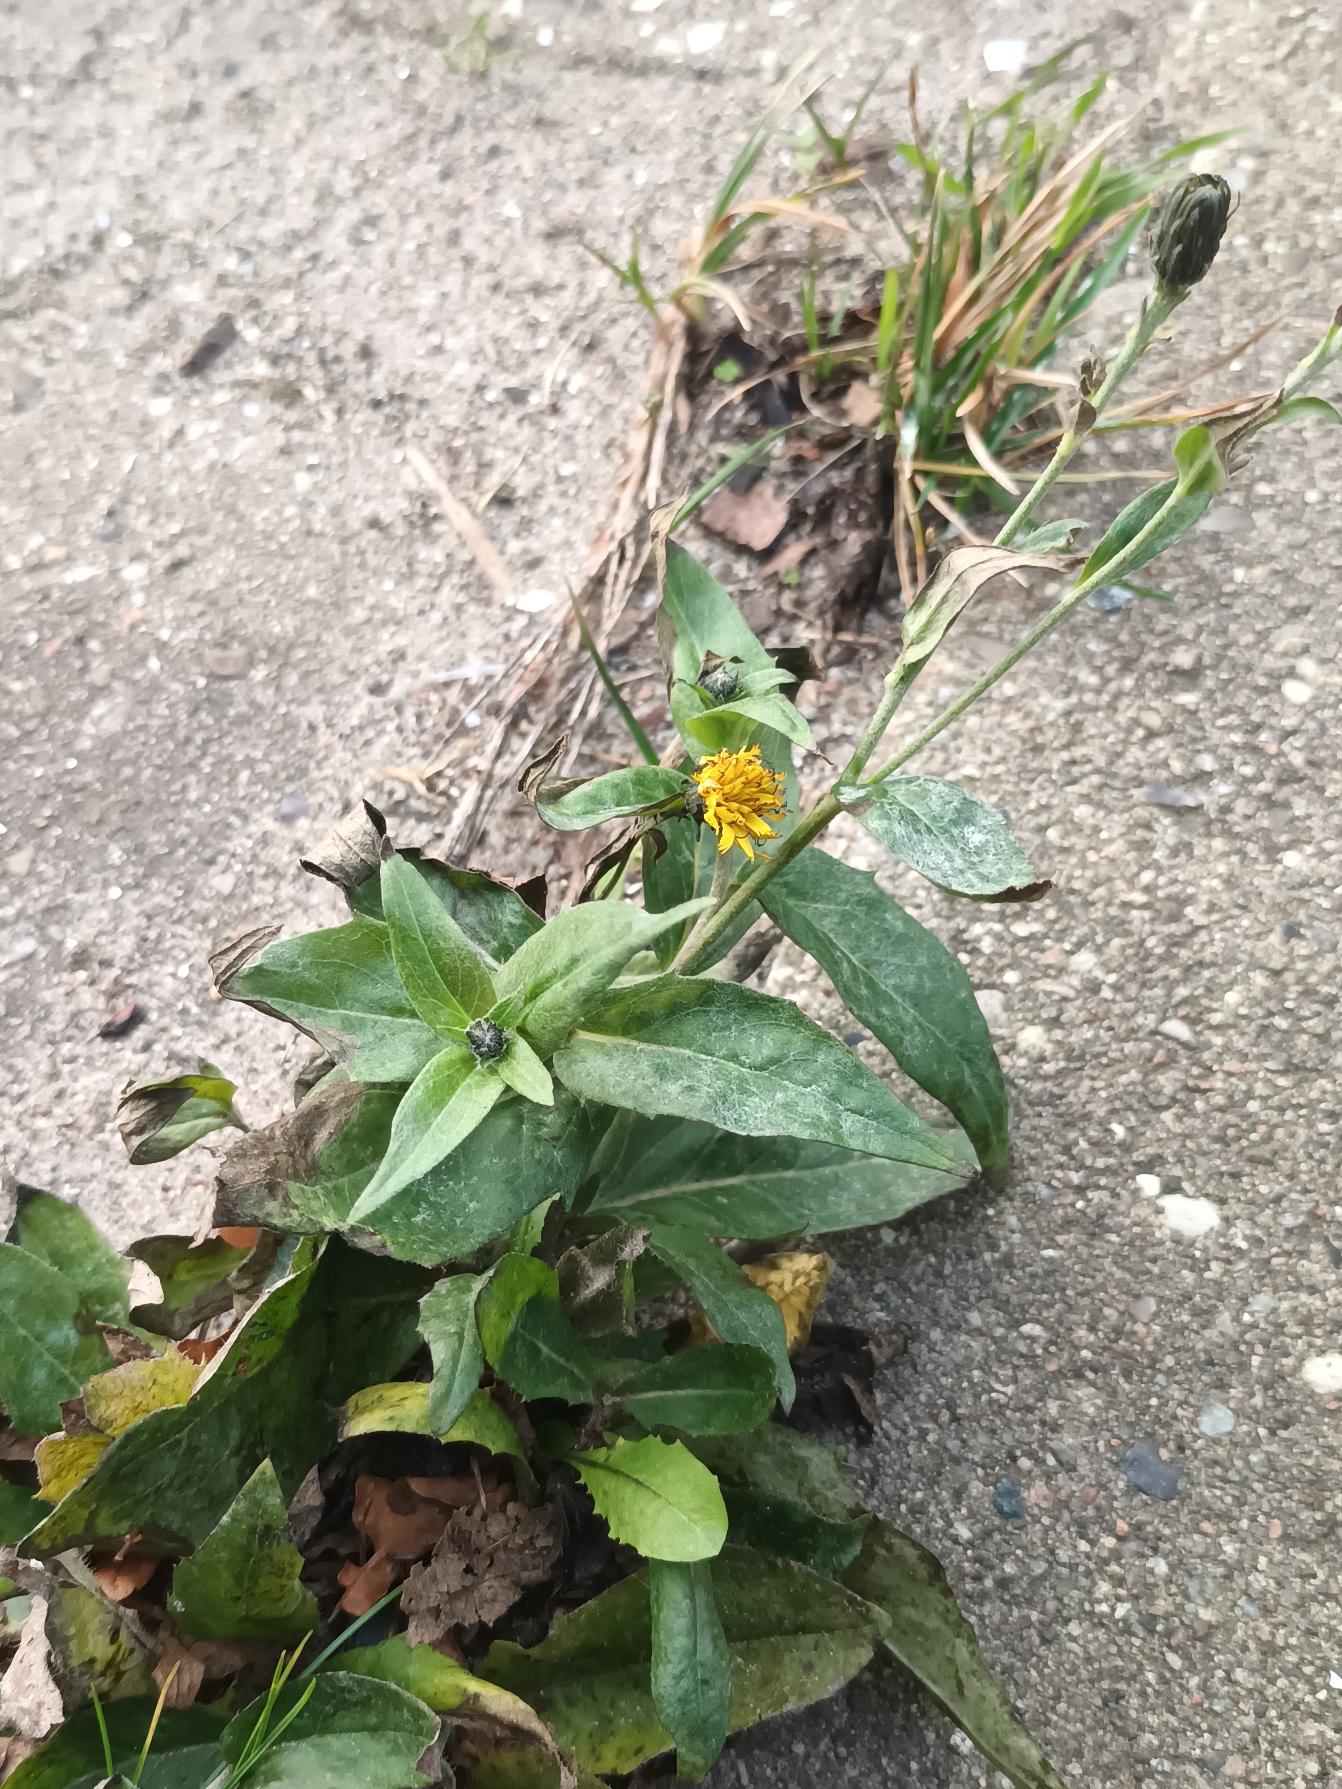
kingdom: Plantae
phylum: Tracheophyta
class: Magnoliopsida
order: Asterales
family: Asteraceae
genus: Hieracium
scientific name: Hieracium
